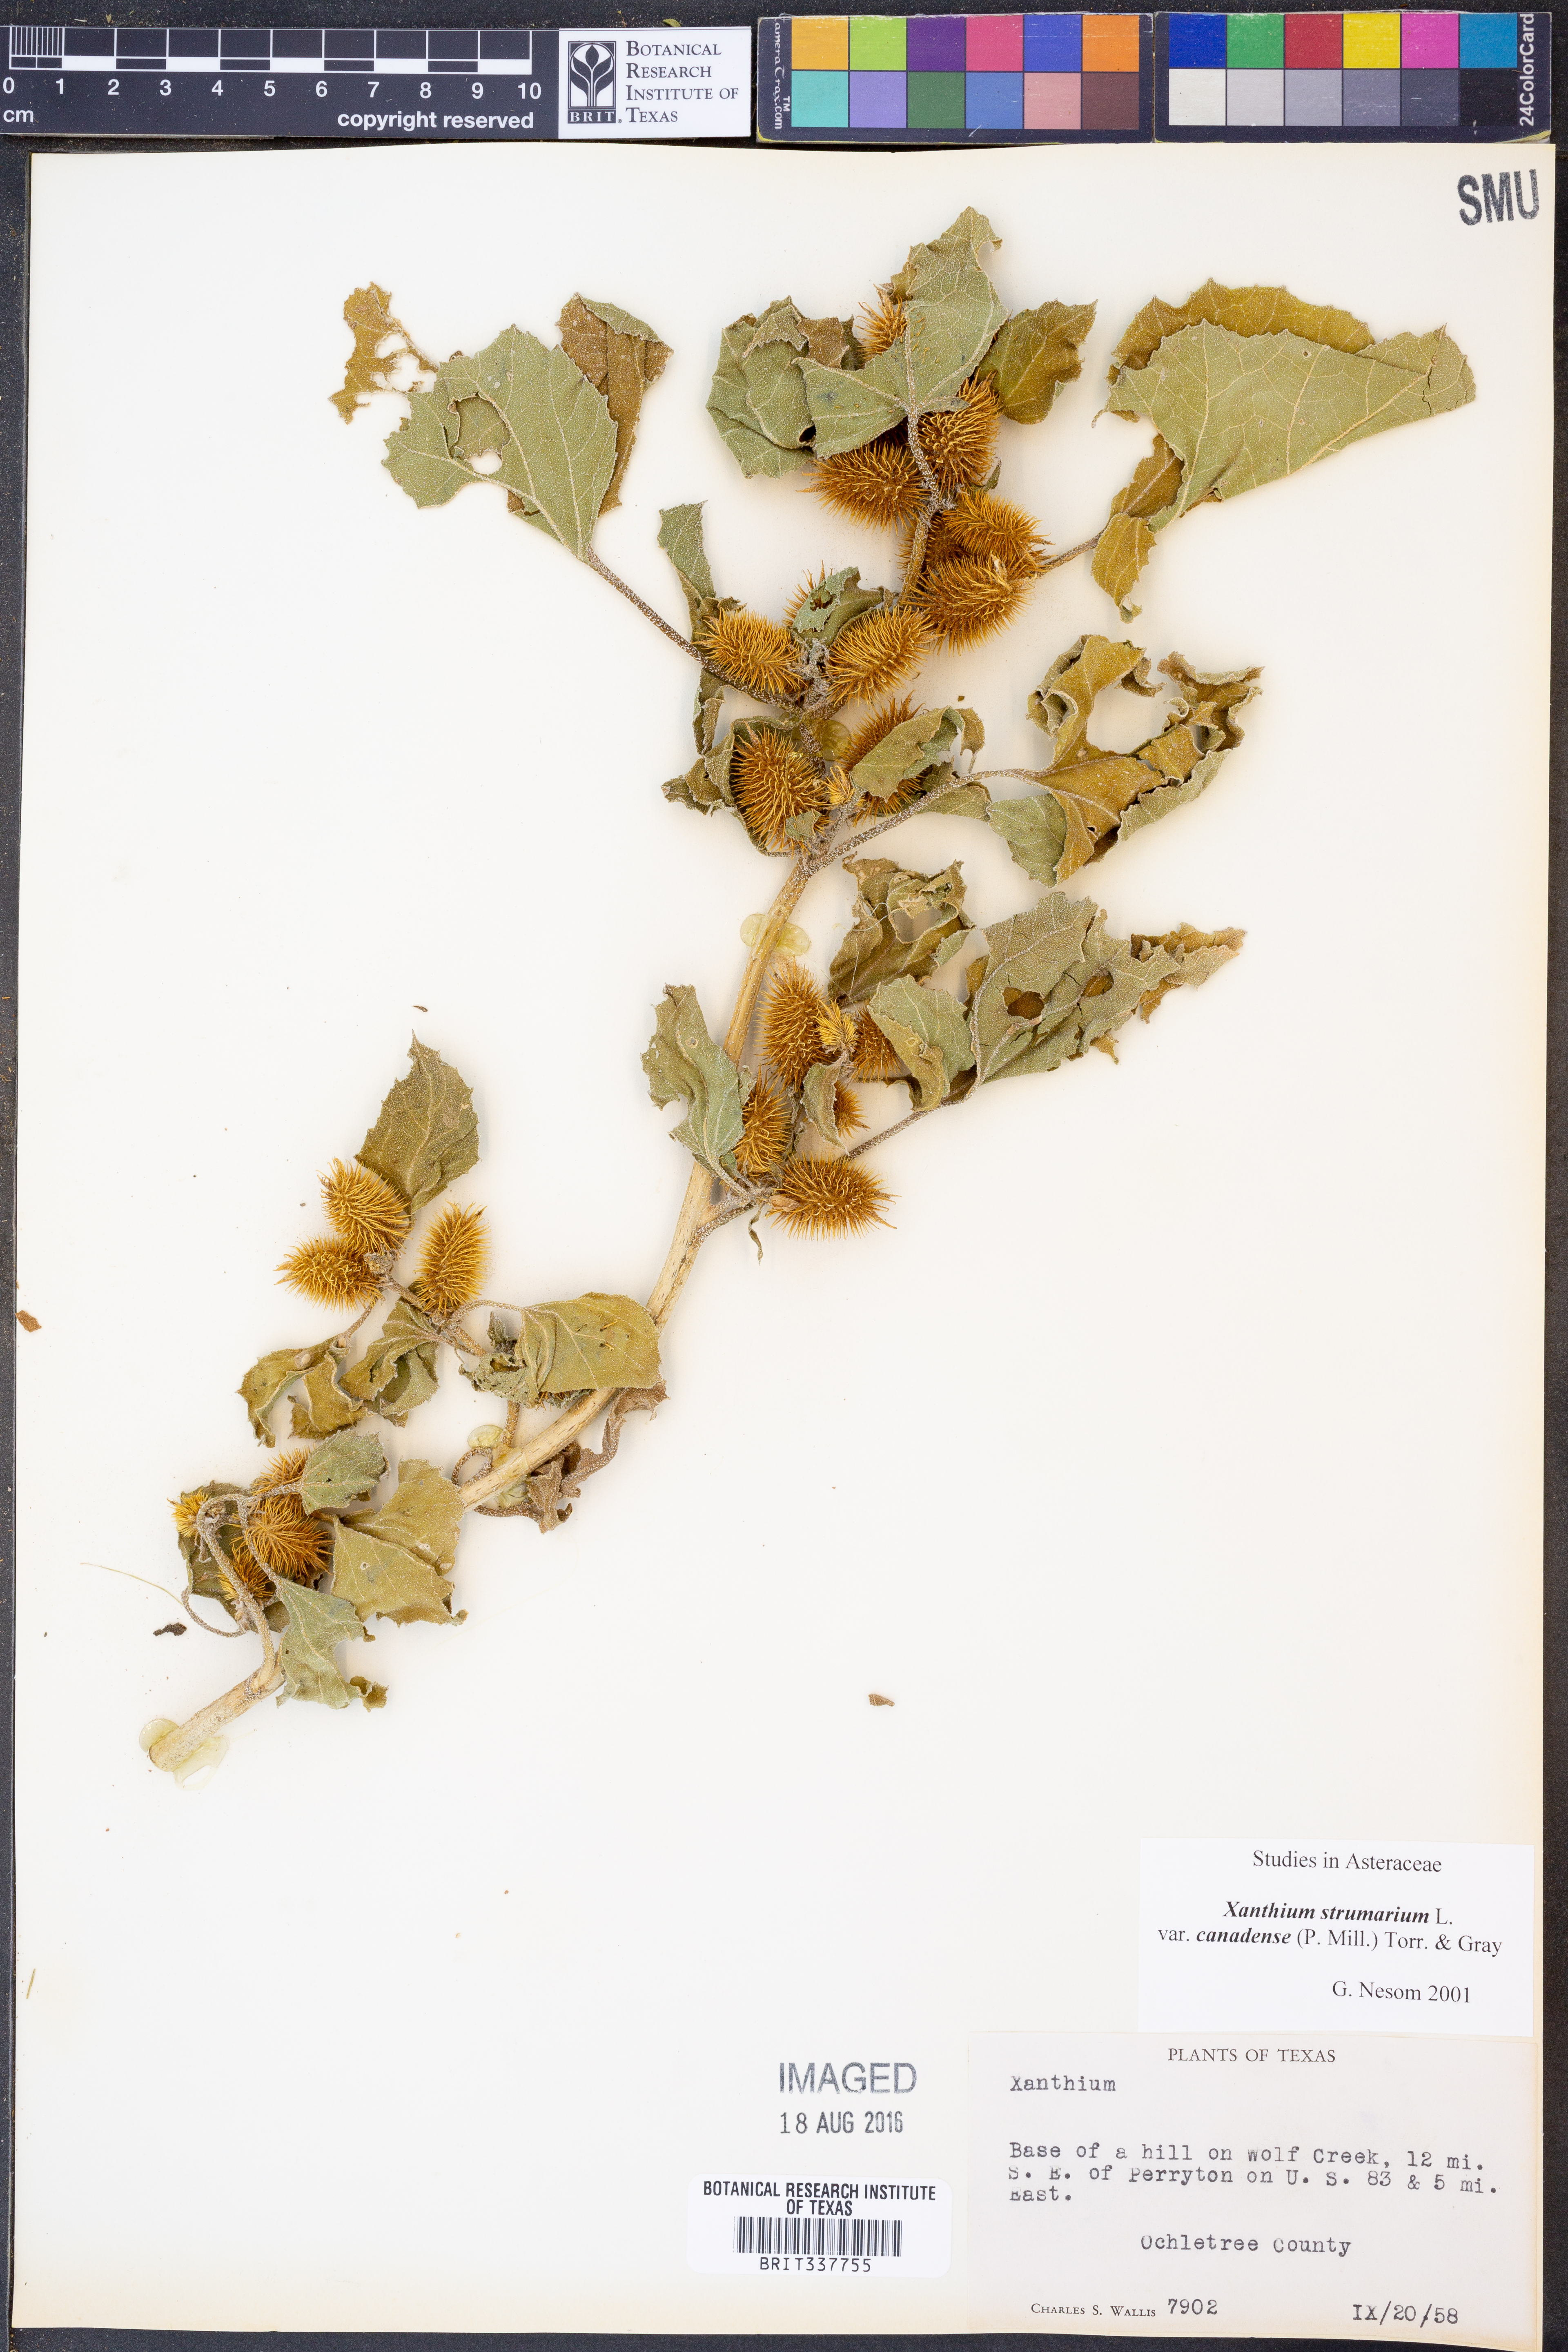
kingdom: Plantae
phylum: Tracheophyta
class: Magnoliopsida
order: Asterales
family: Asteraceae
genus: Xanthium
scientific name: Xanthium orientale
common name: Californian burr
